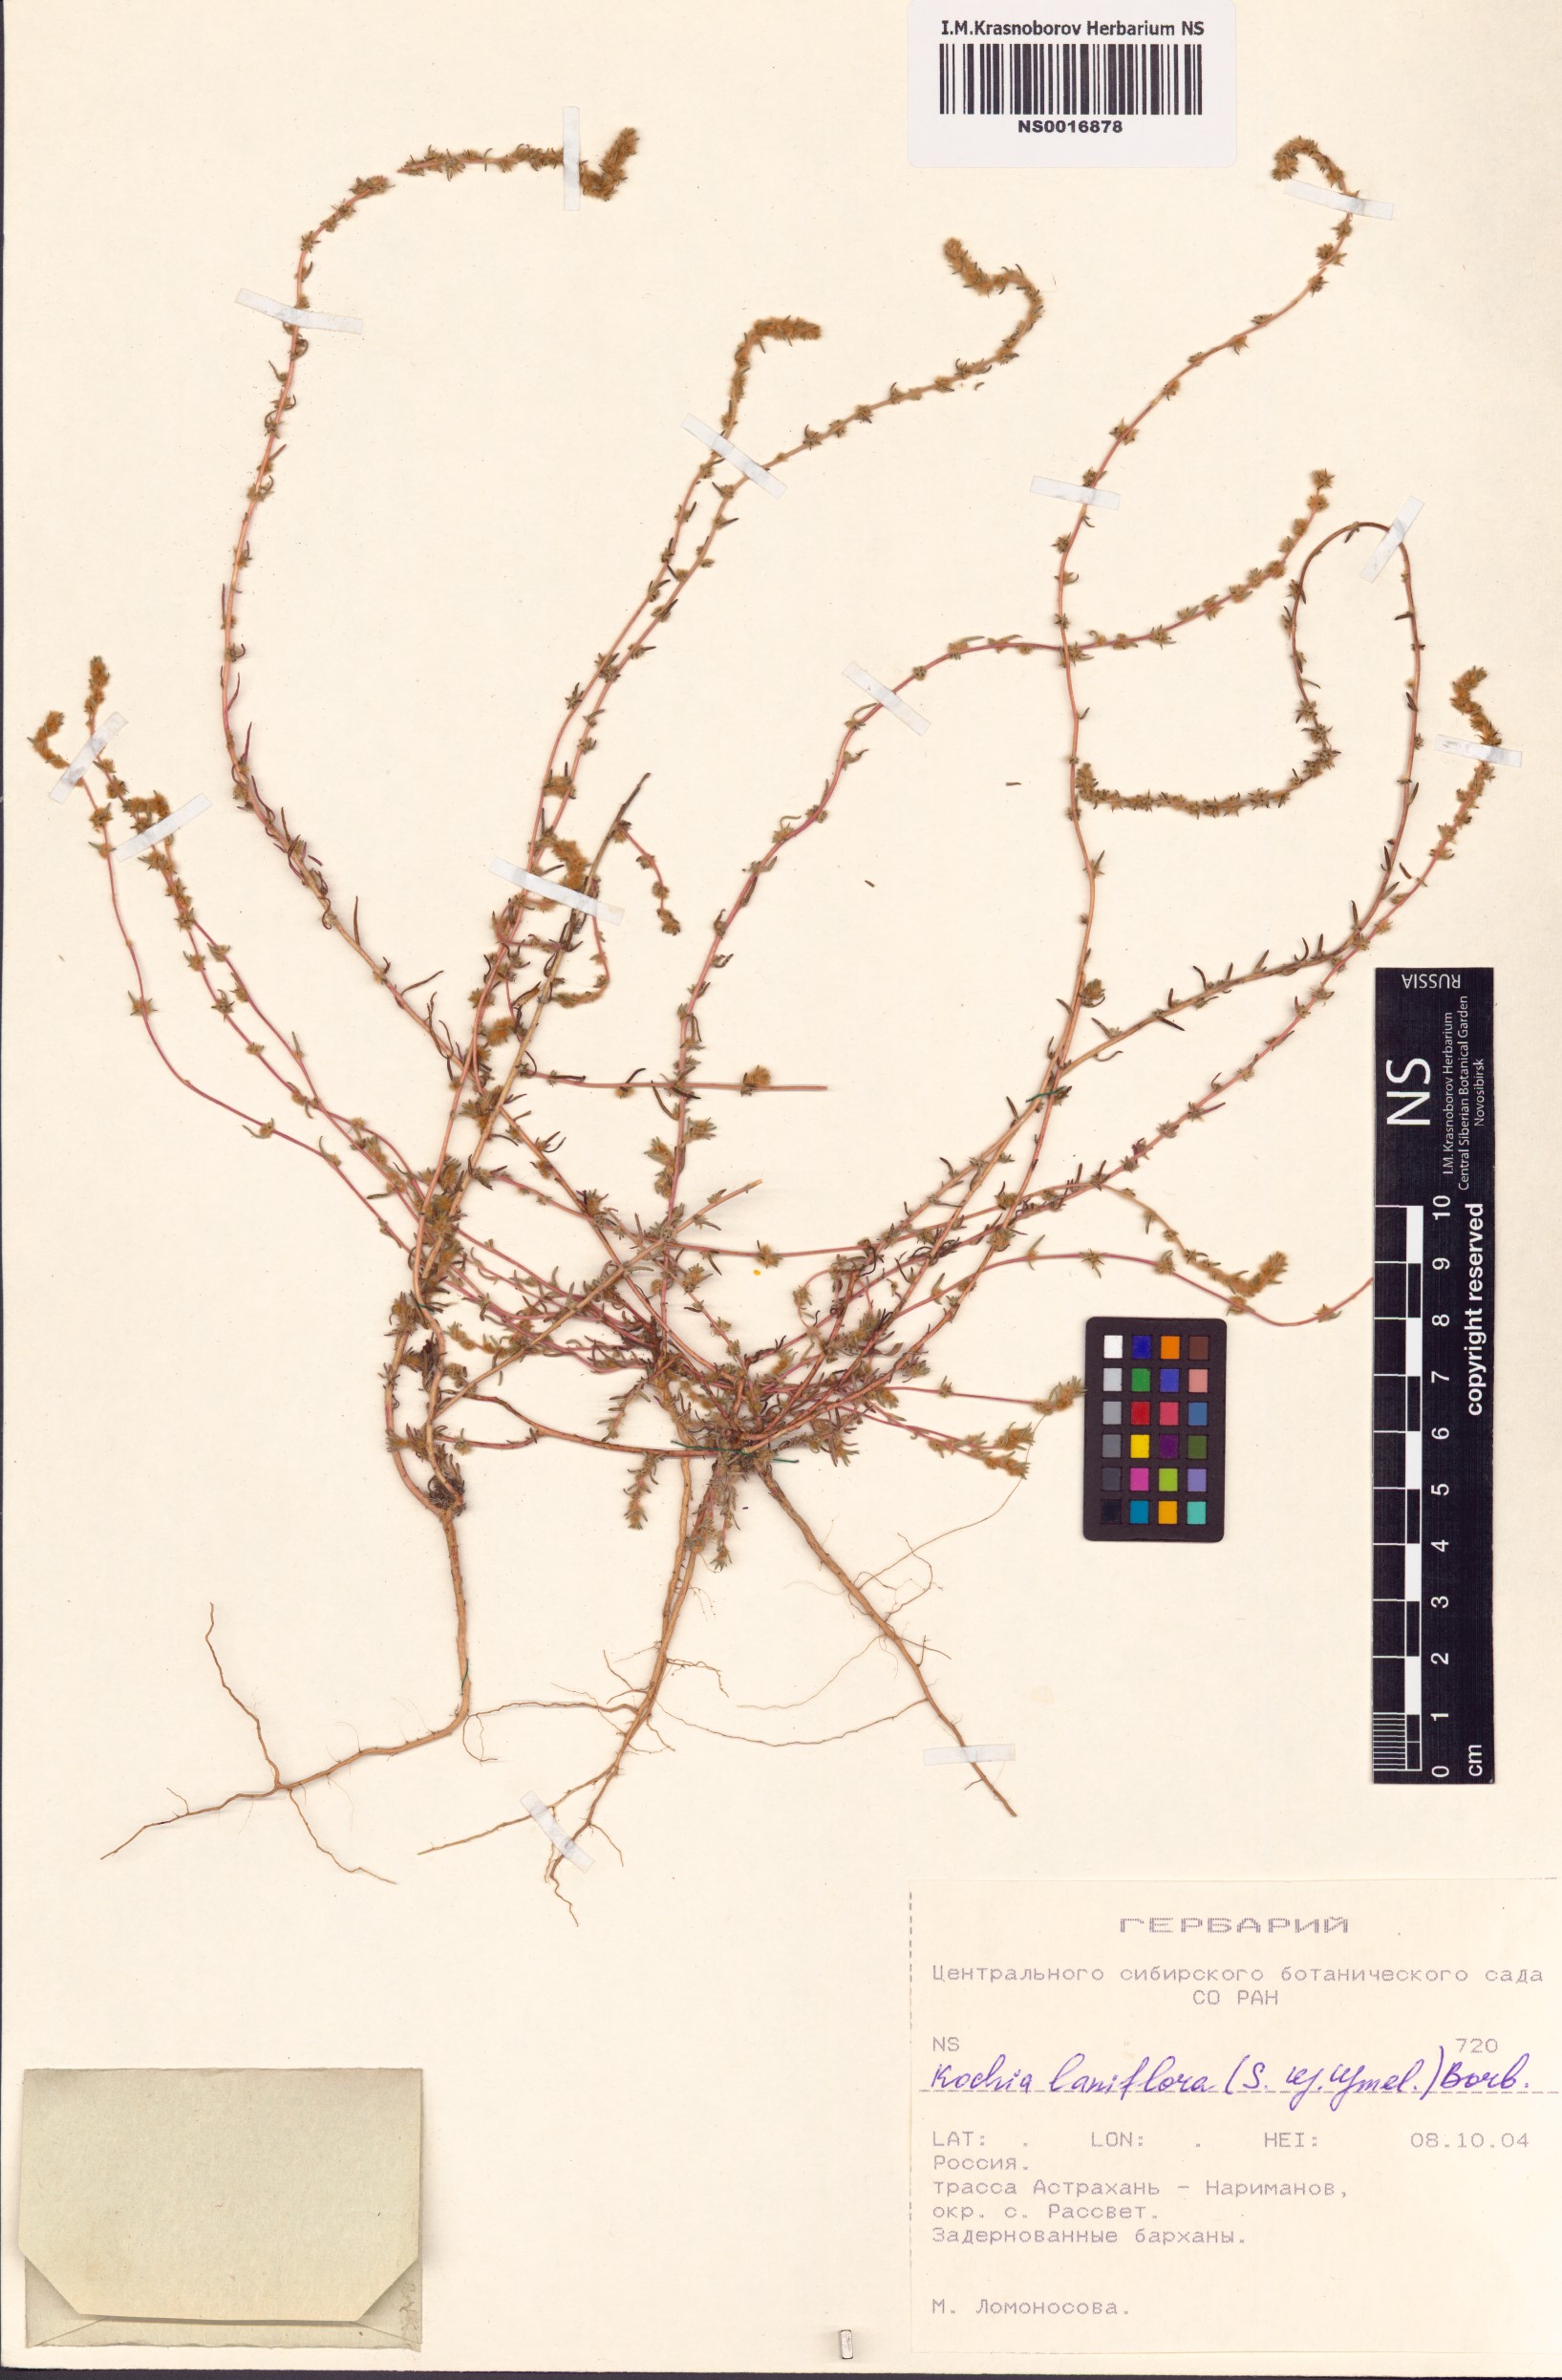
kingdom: Plantae
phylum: Tracheophyta
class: Magnoliopsida
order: Caryophyllales
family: Amaranthaceae
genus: Bassia
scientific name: Bassia laniflora
